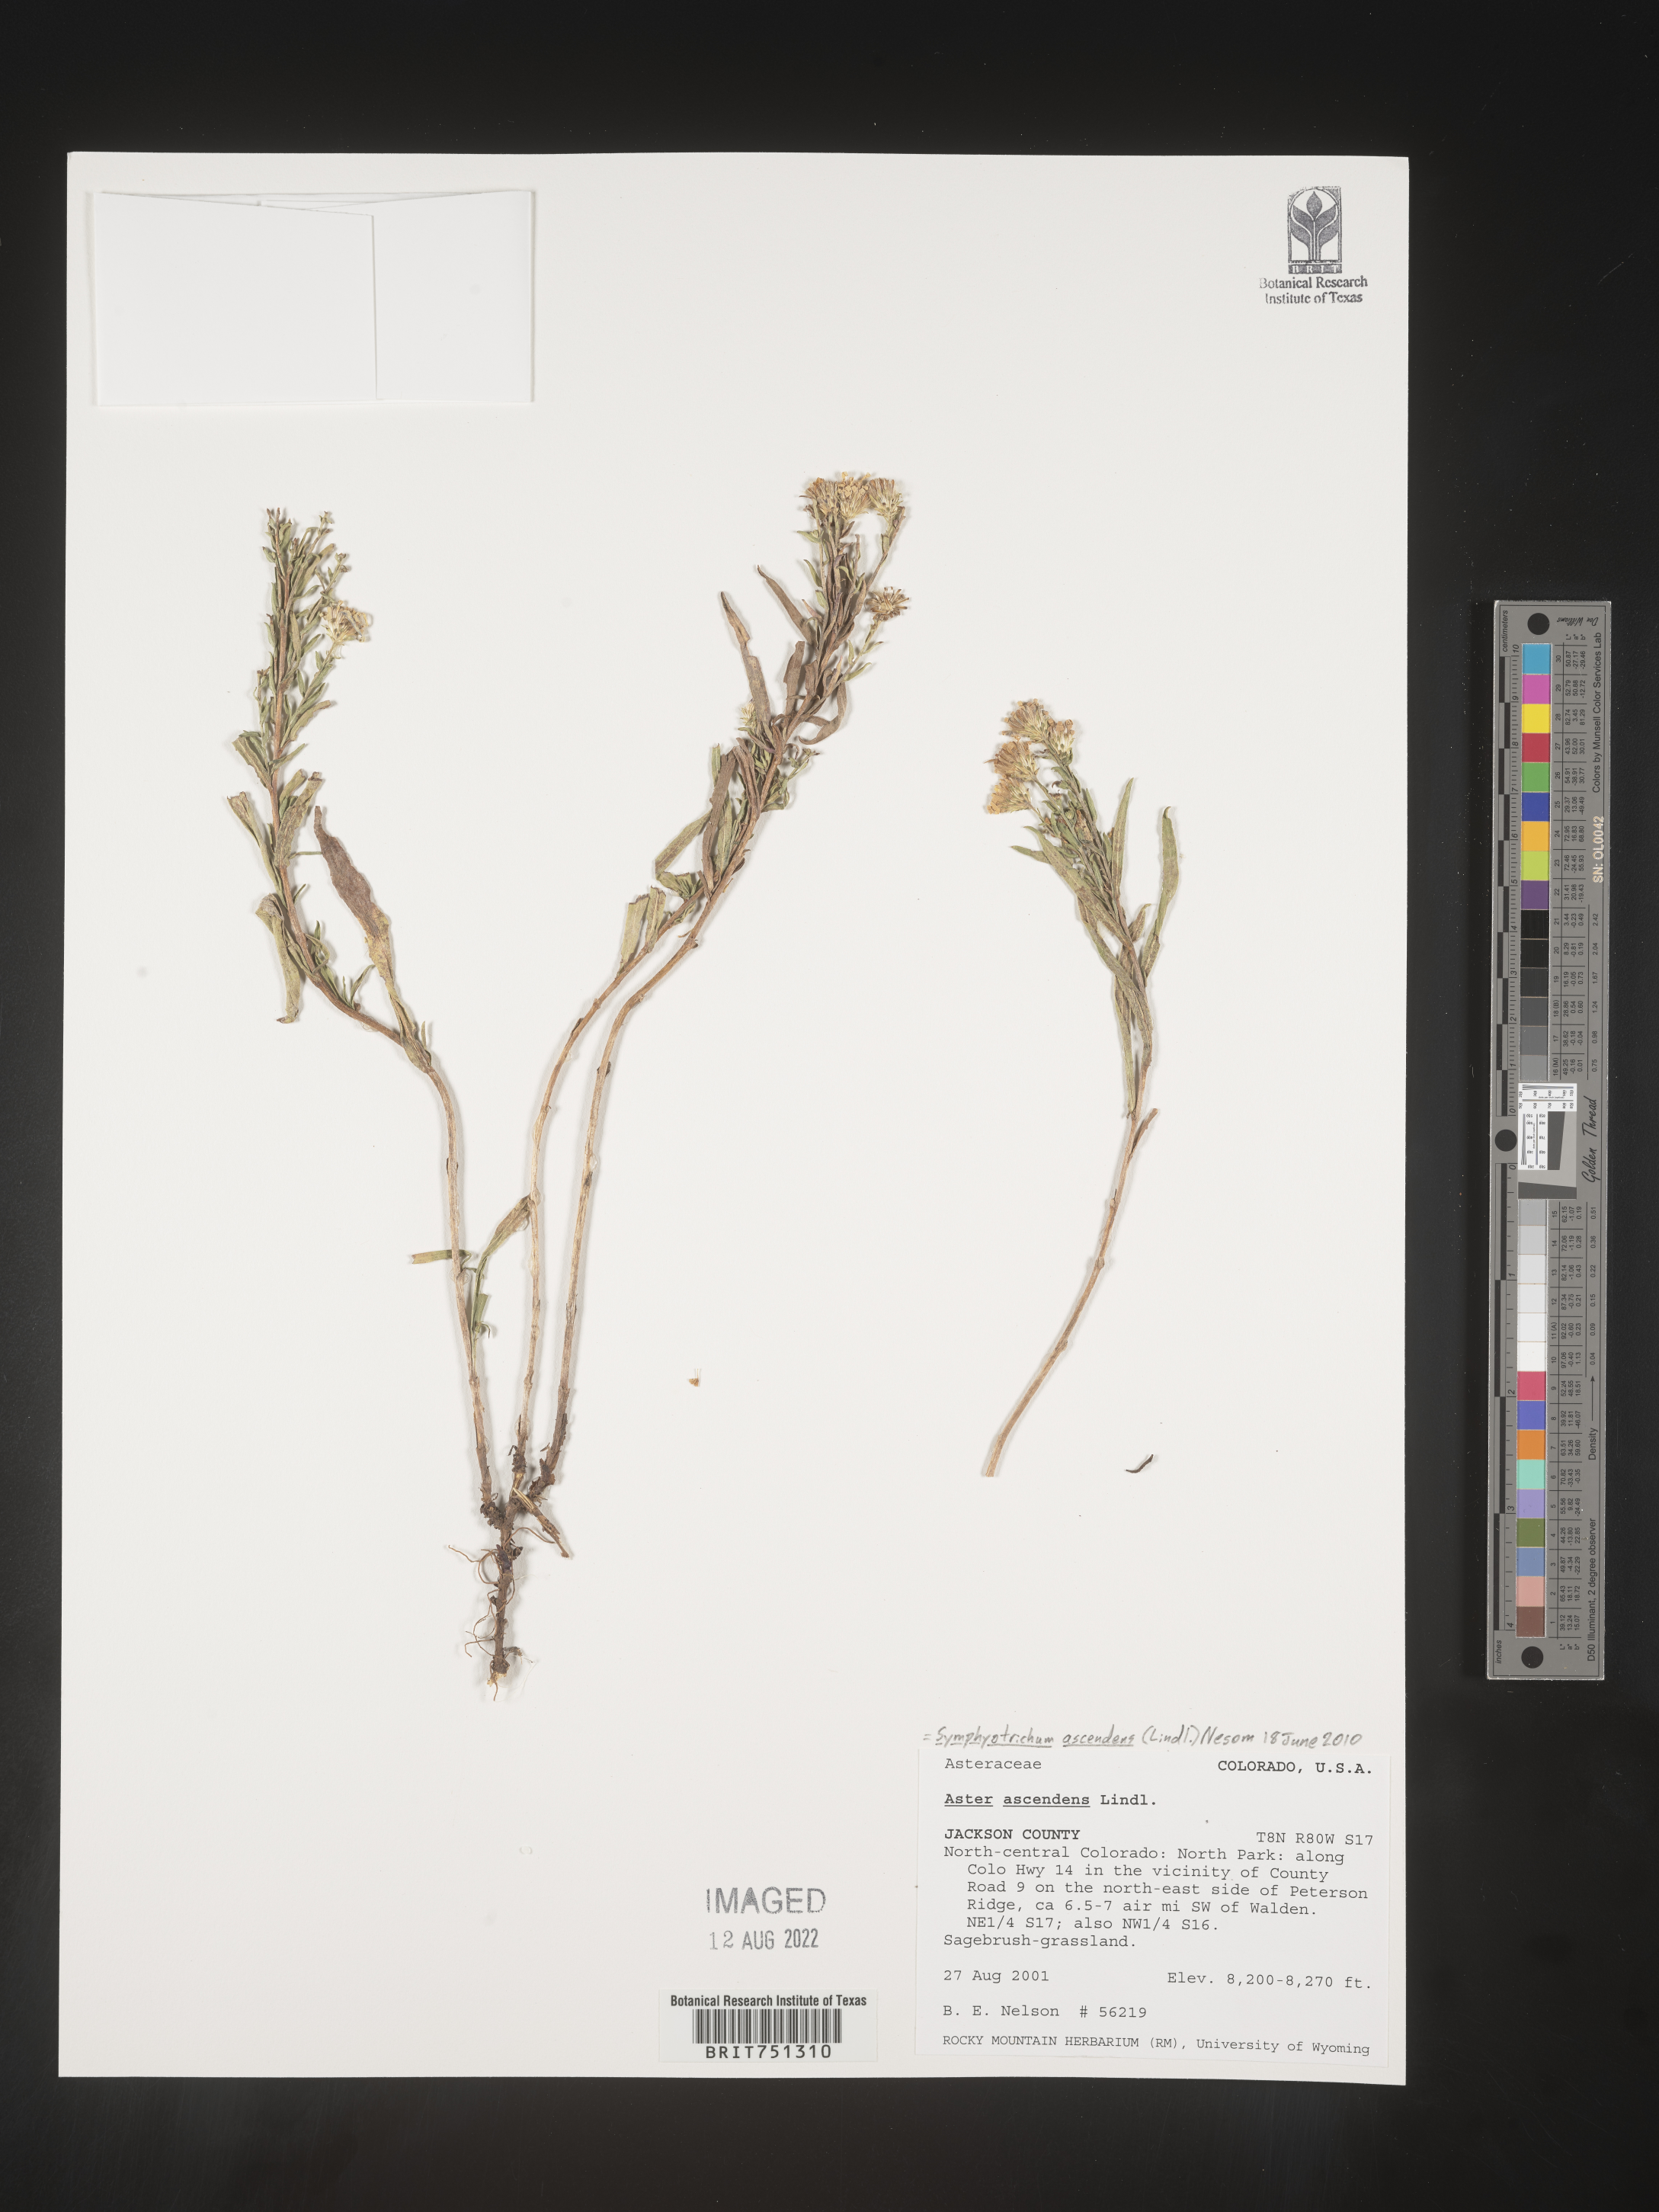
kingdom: Plantae
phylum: Tracheophyta
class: Magnoliopsida
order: Asterales
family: Asteraceae
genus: Symphyotrichum
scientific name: Symphyotrichum ascendens
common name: Intermountain aster
